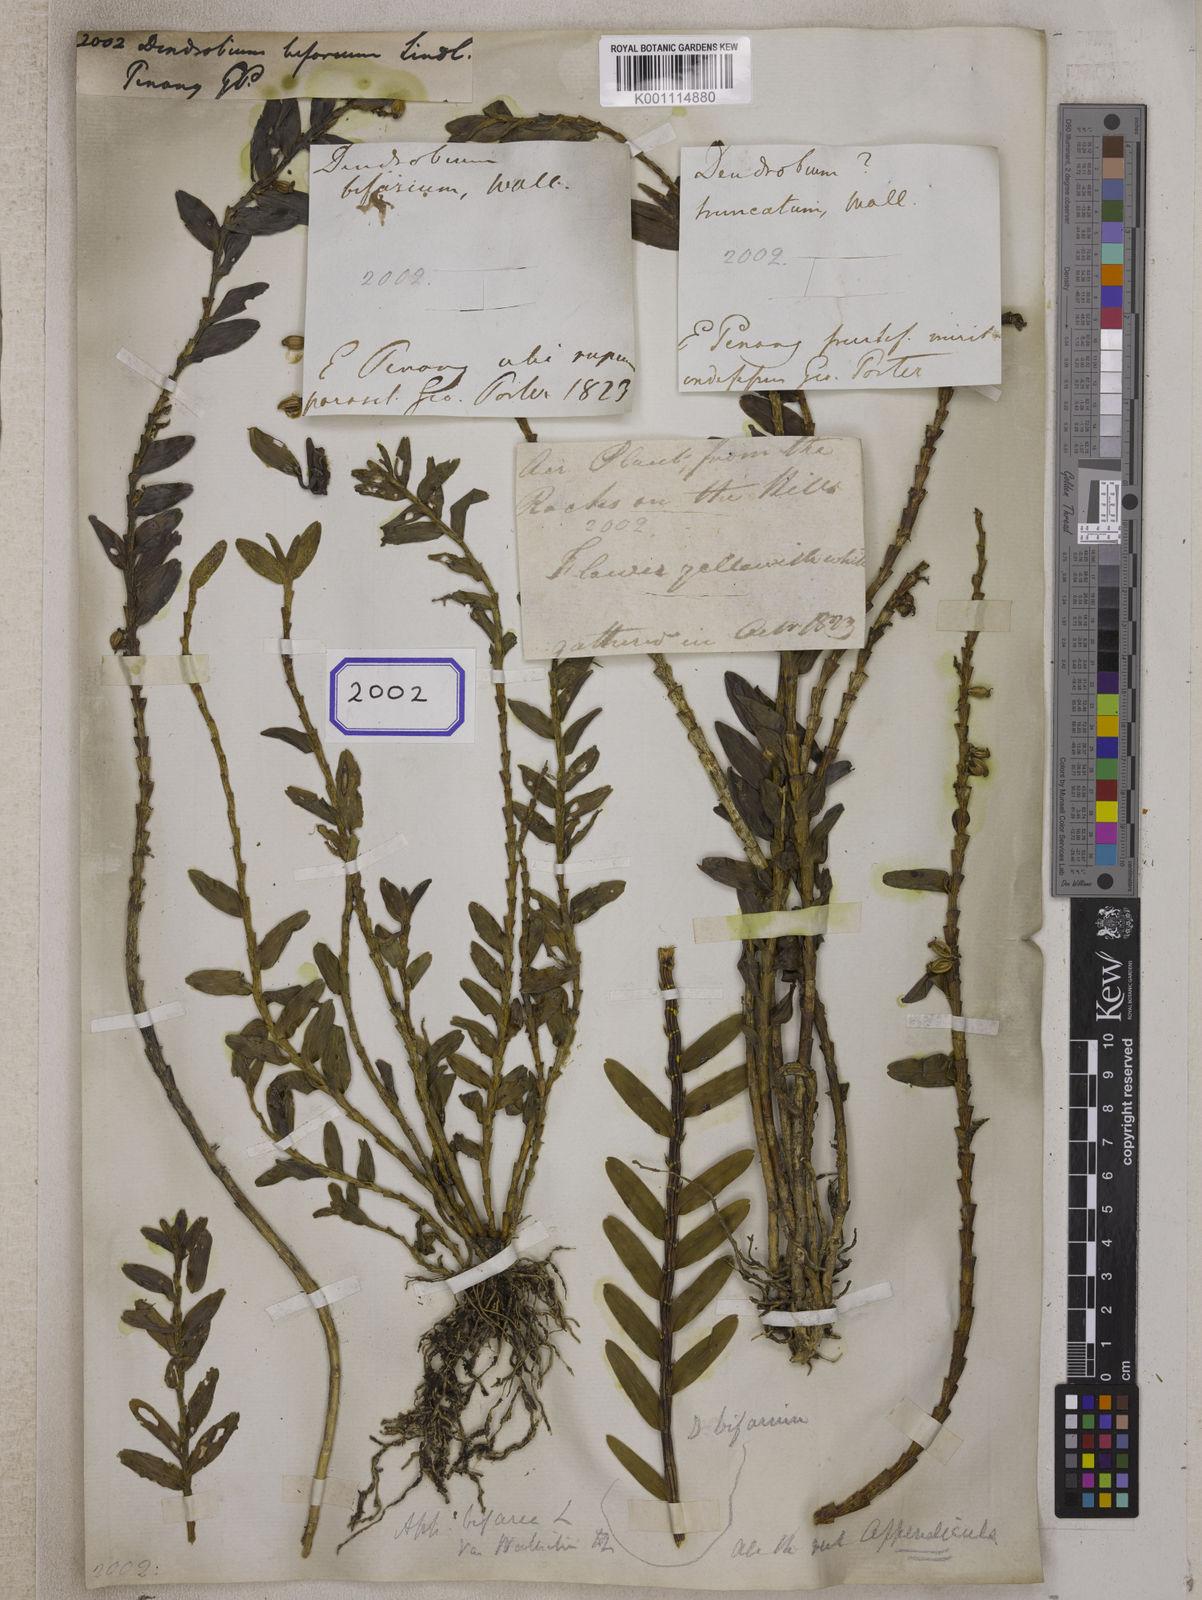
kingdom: Plantae
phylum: Tracheophyta
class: Liliopsida
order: Asparagales
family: Orchidaceae
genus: Dendrobium
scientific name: Dendrobium
